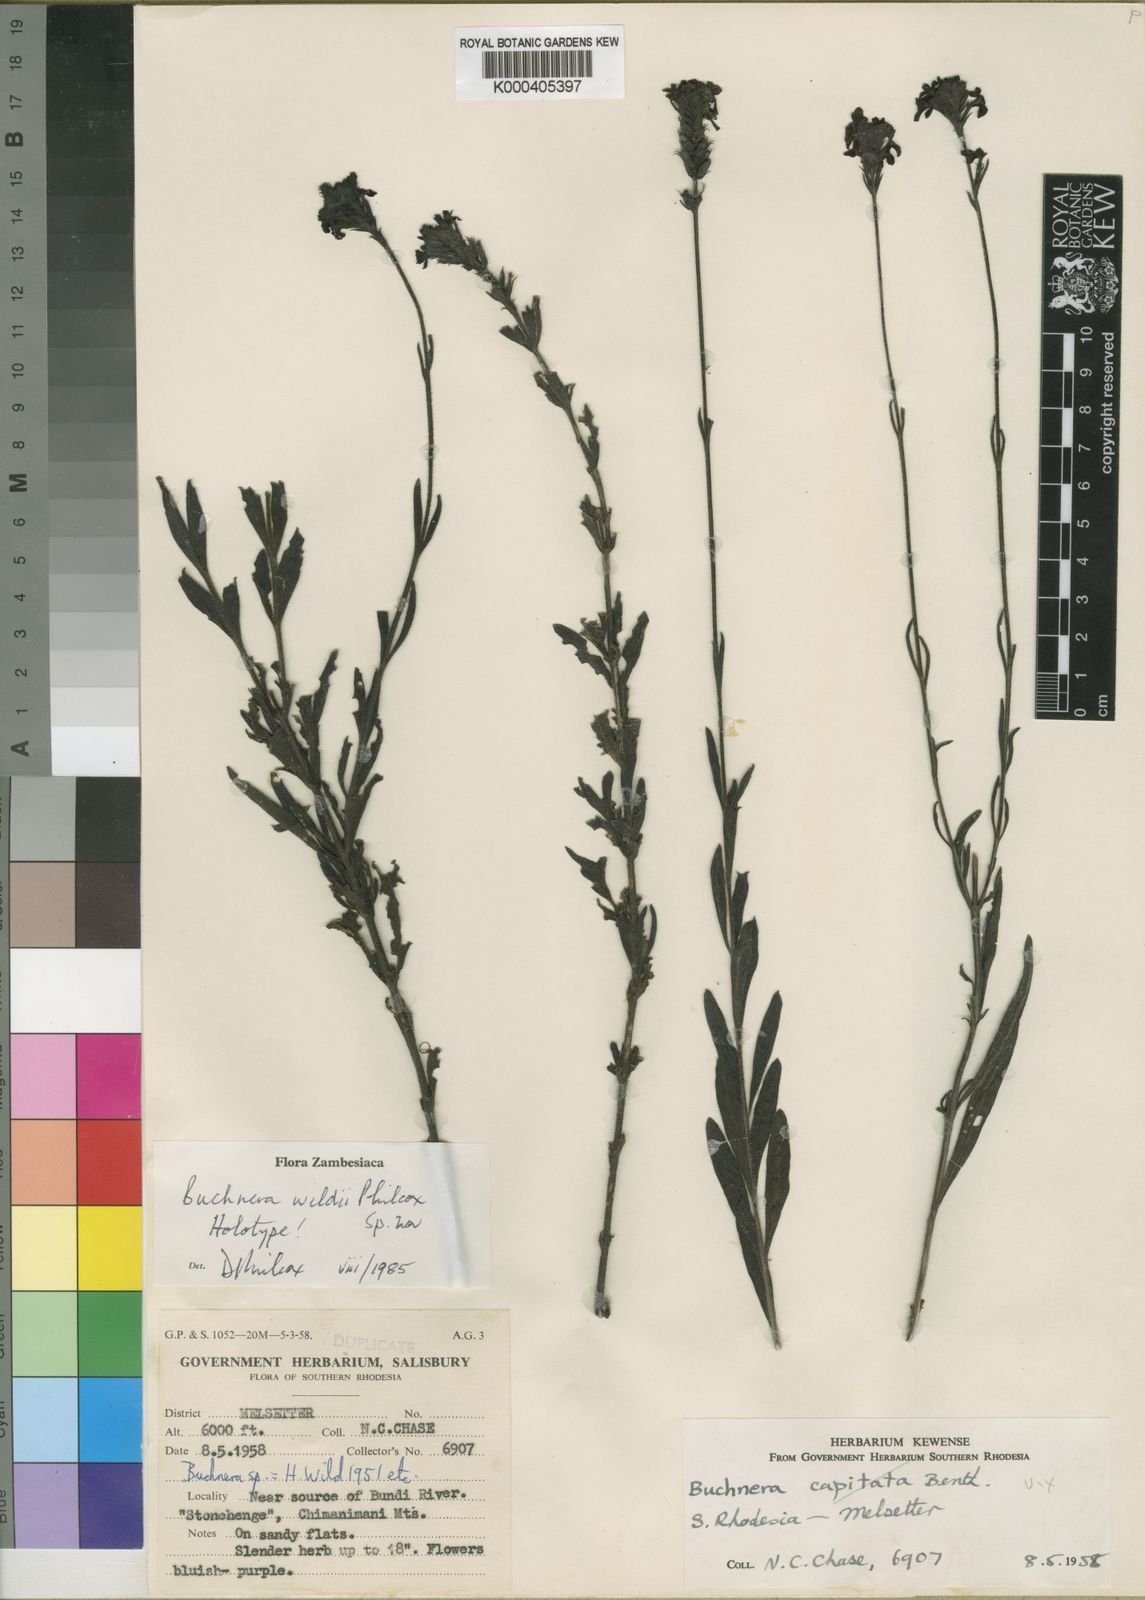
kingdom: Plantae
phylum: Tracheophyta
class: Magnoliopsida
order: Lamiales
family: Orobanchaceae
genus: Buchnera
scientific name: Buchnera wildii
